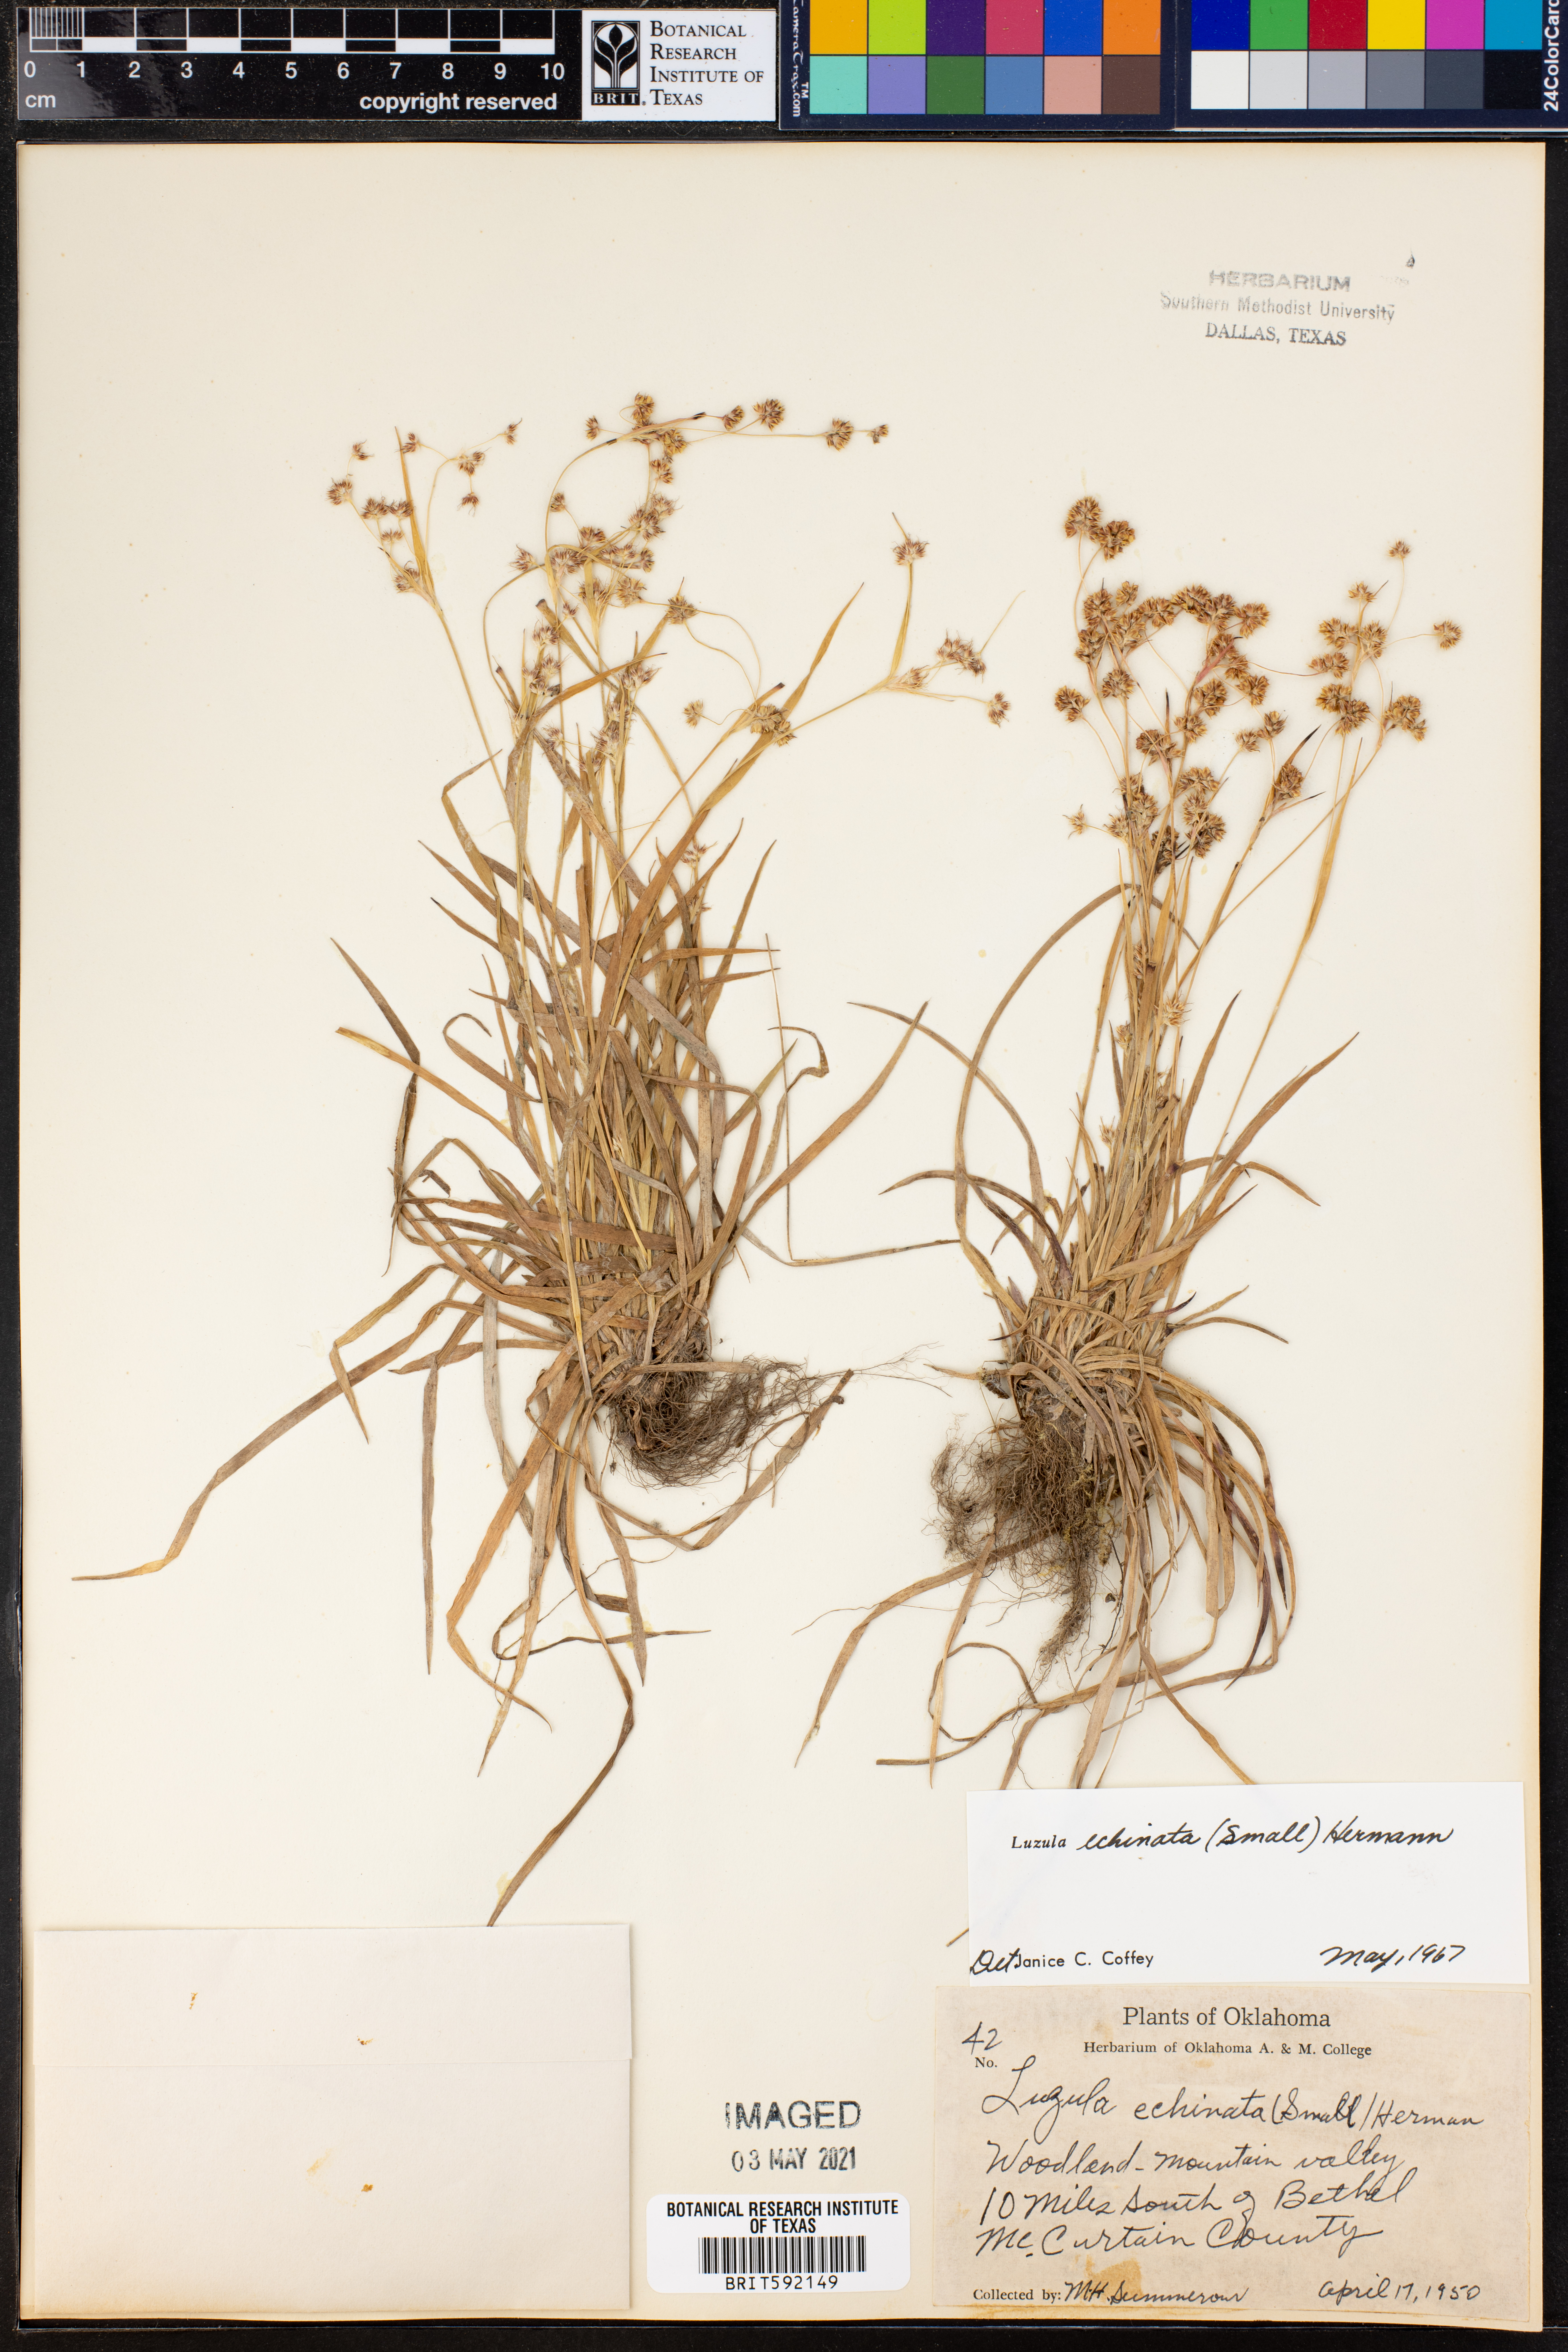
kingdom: Plantae
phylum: Tracheophyta
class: Liliopsida
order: Poales
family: Juncaceae
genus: Luzula
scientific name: Luzula echinata
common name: Hedgehog woodrush
